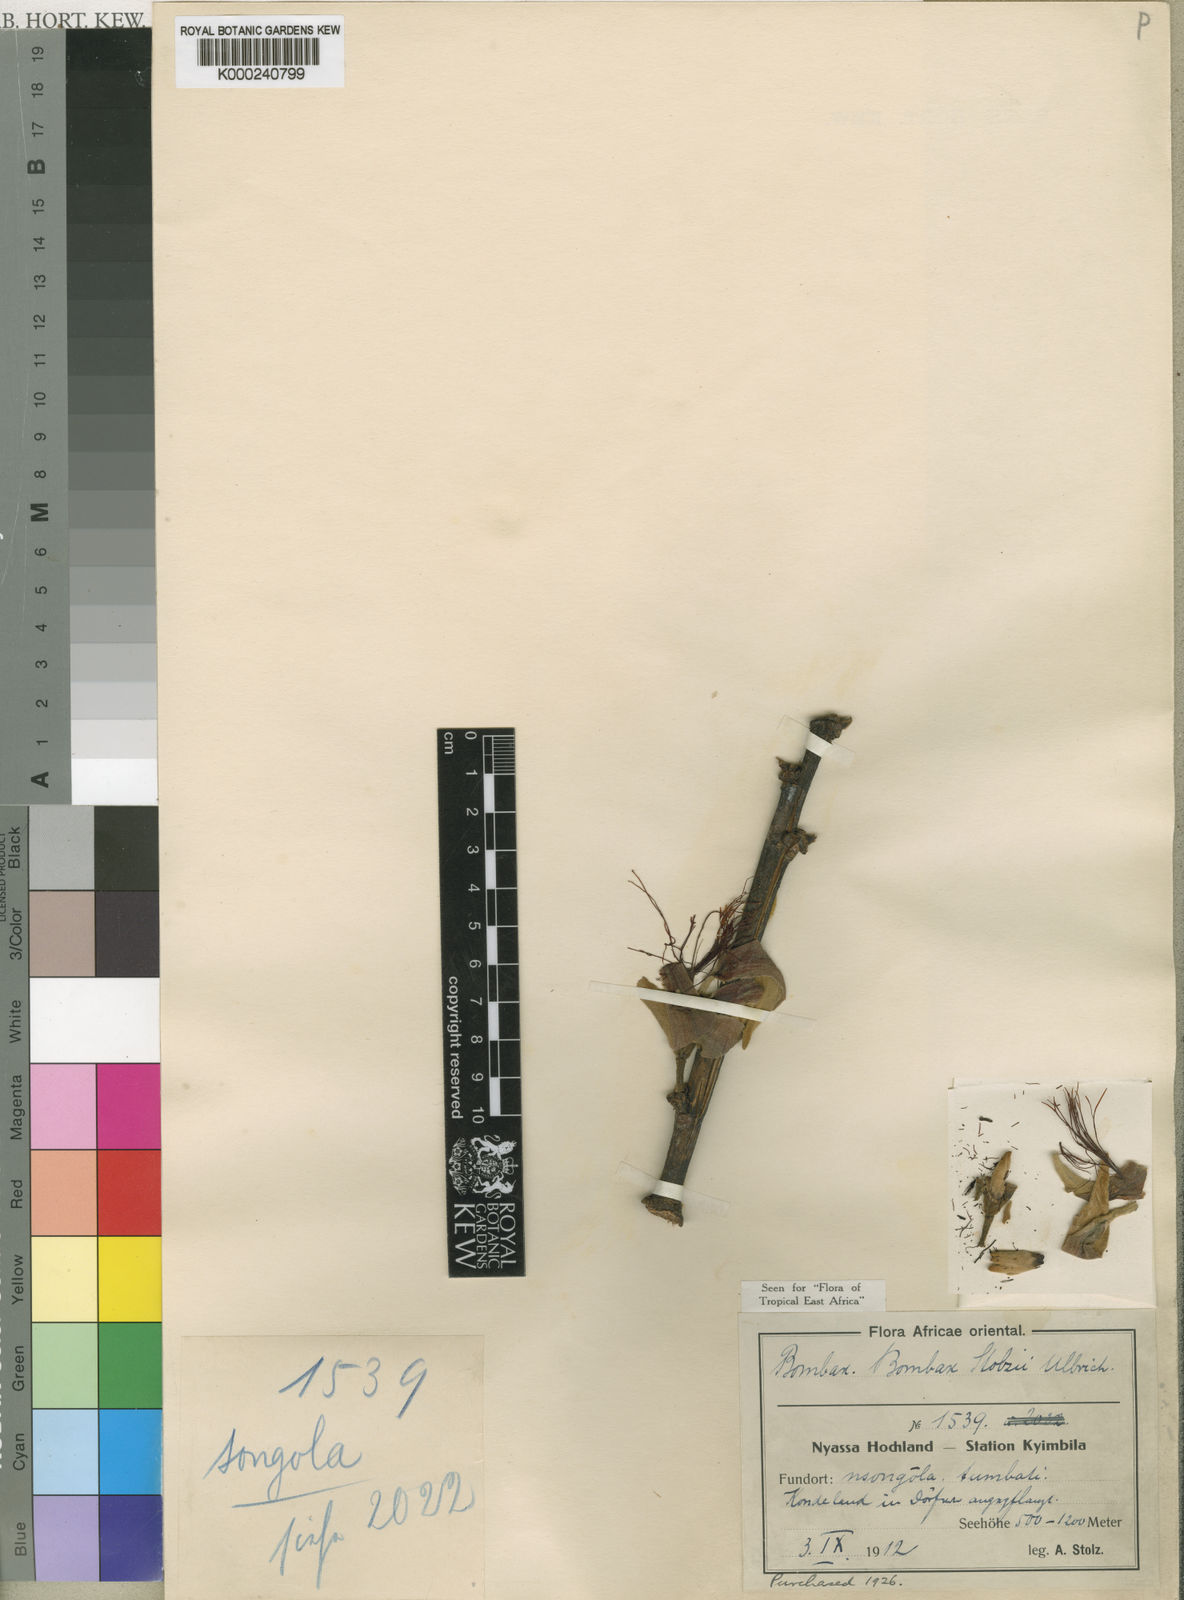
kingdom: Plantae
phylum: Tracheophyta
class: Magnoliopsida
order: Malvales
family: Malvaceae
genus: Rhodognaphalon
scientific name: Rhodognaphalon stolzii
